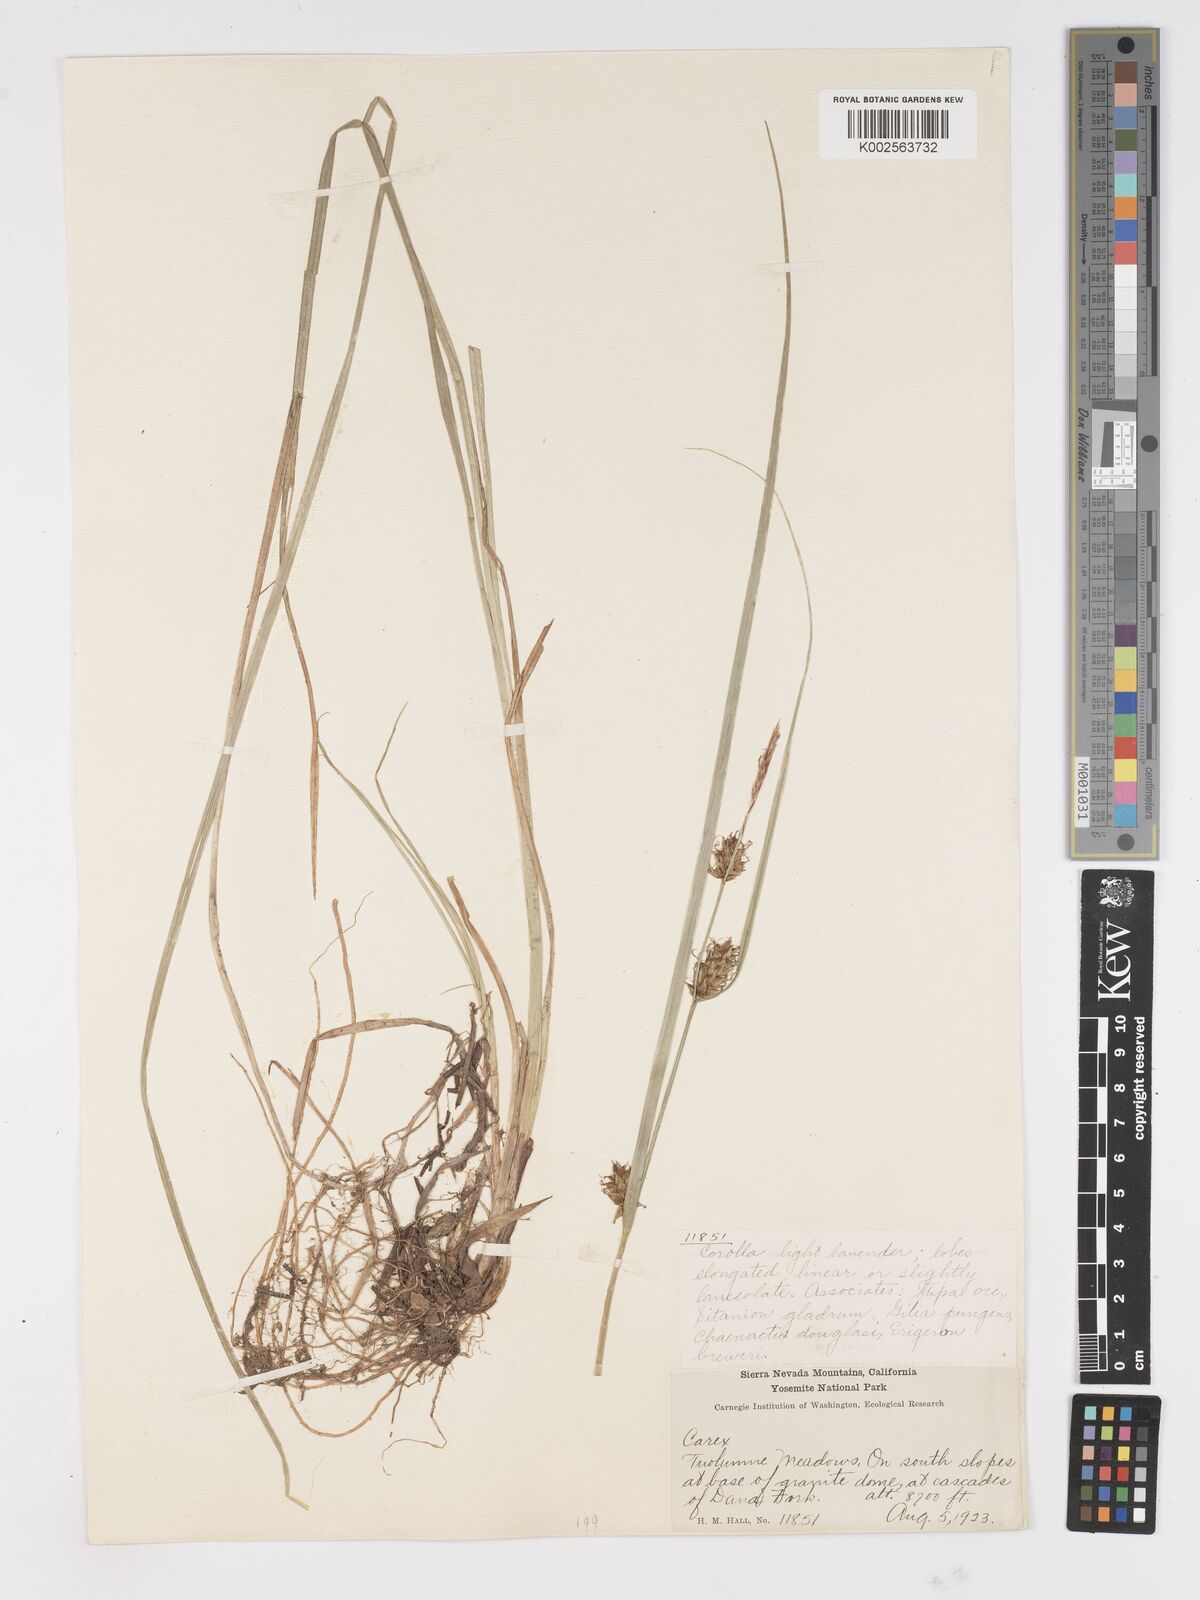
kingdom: Plantae
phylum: Tracheophyta
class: Liliopsida
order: Poales
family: Cyperaceae
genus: Carex
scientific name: Carex vesicaria
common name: Bladder-sedge
